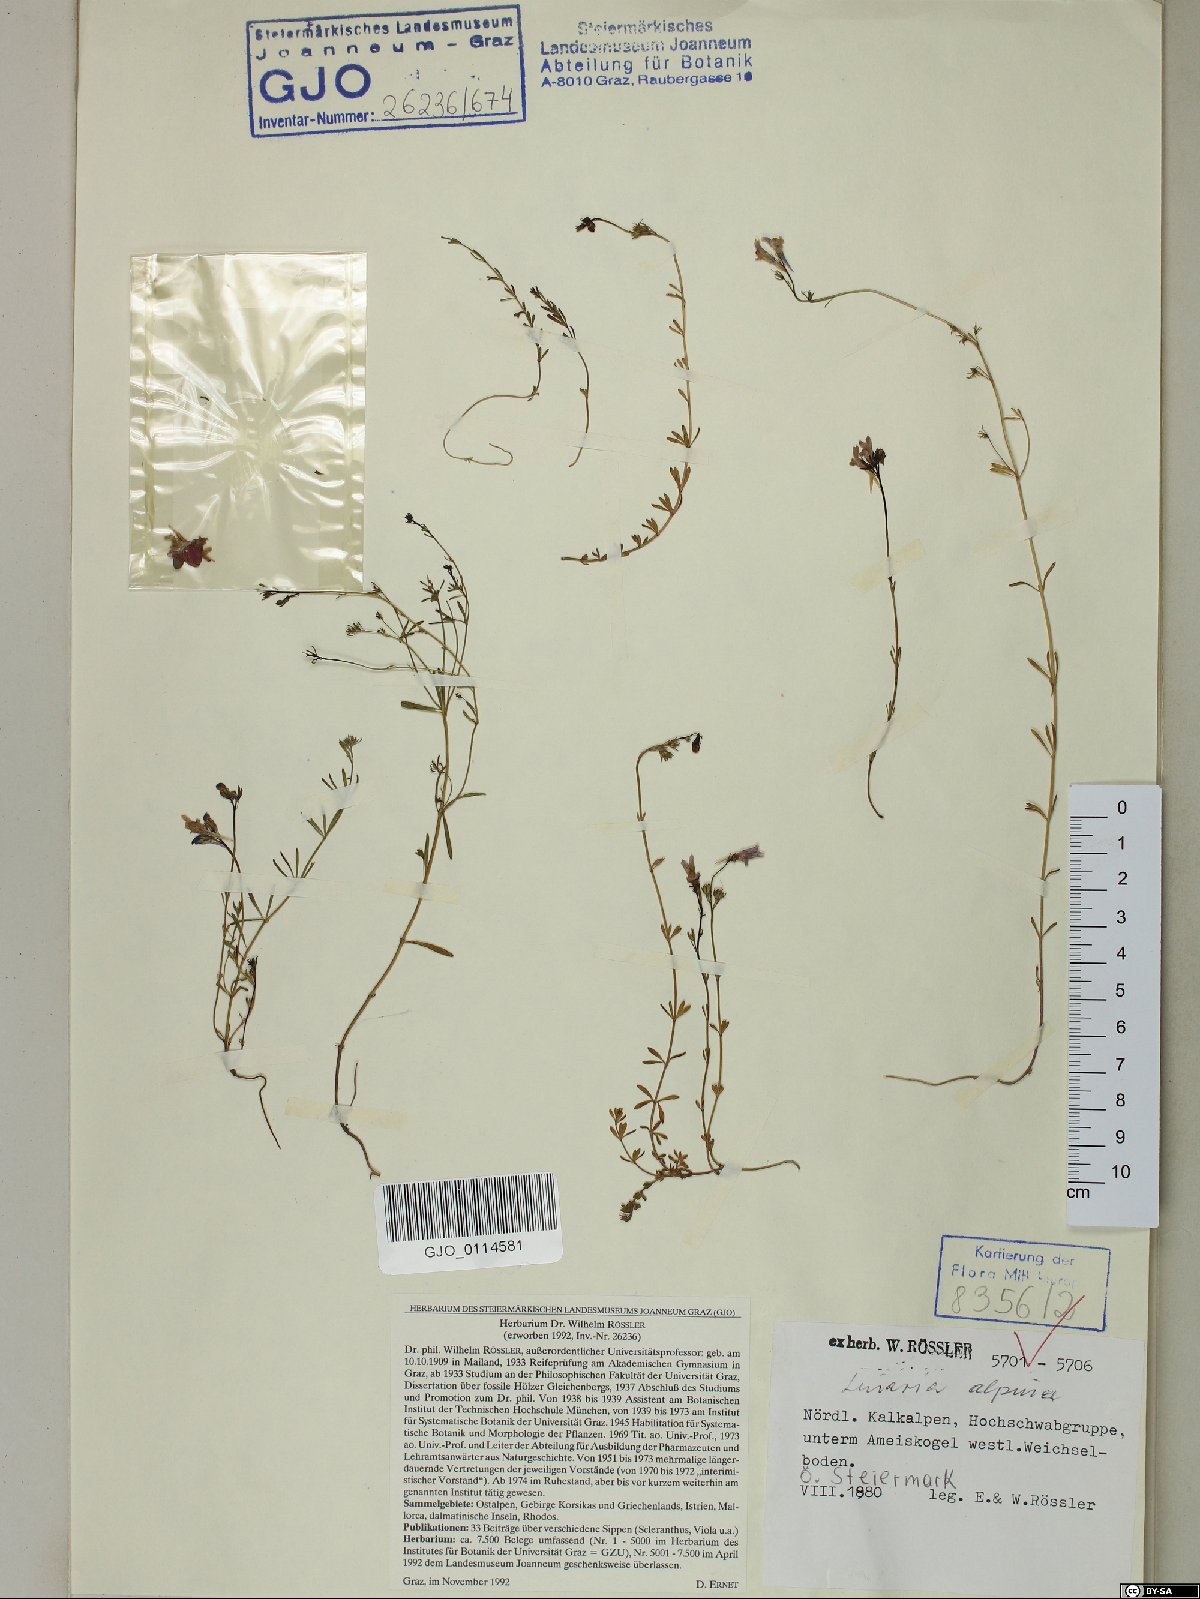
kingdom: Plantae
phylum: Tracheophyta
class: Magnoliopsida
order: Lamiales
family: Plantaginaceae
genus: Linaria
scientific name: Linaria alpina
